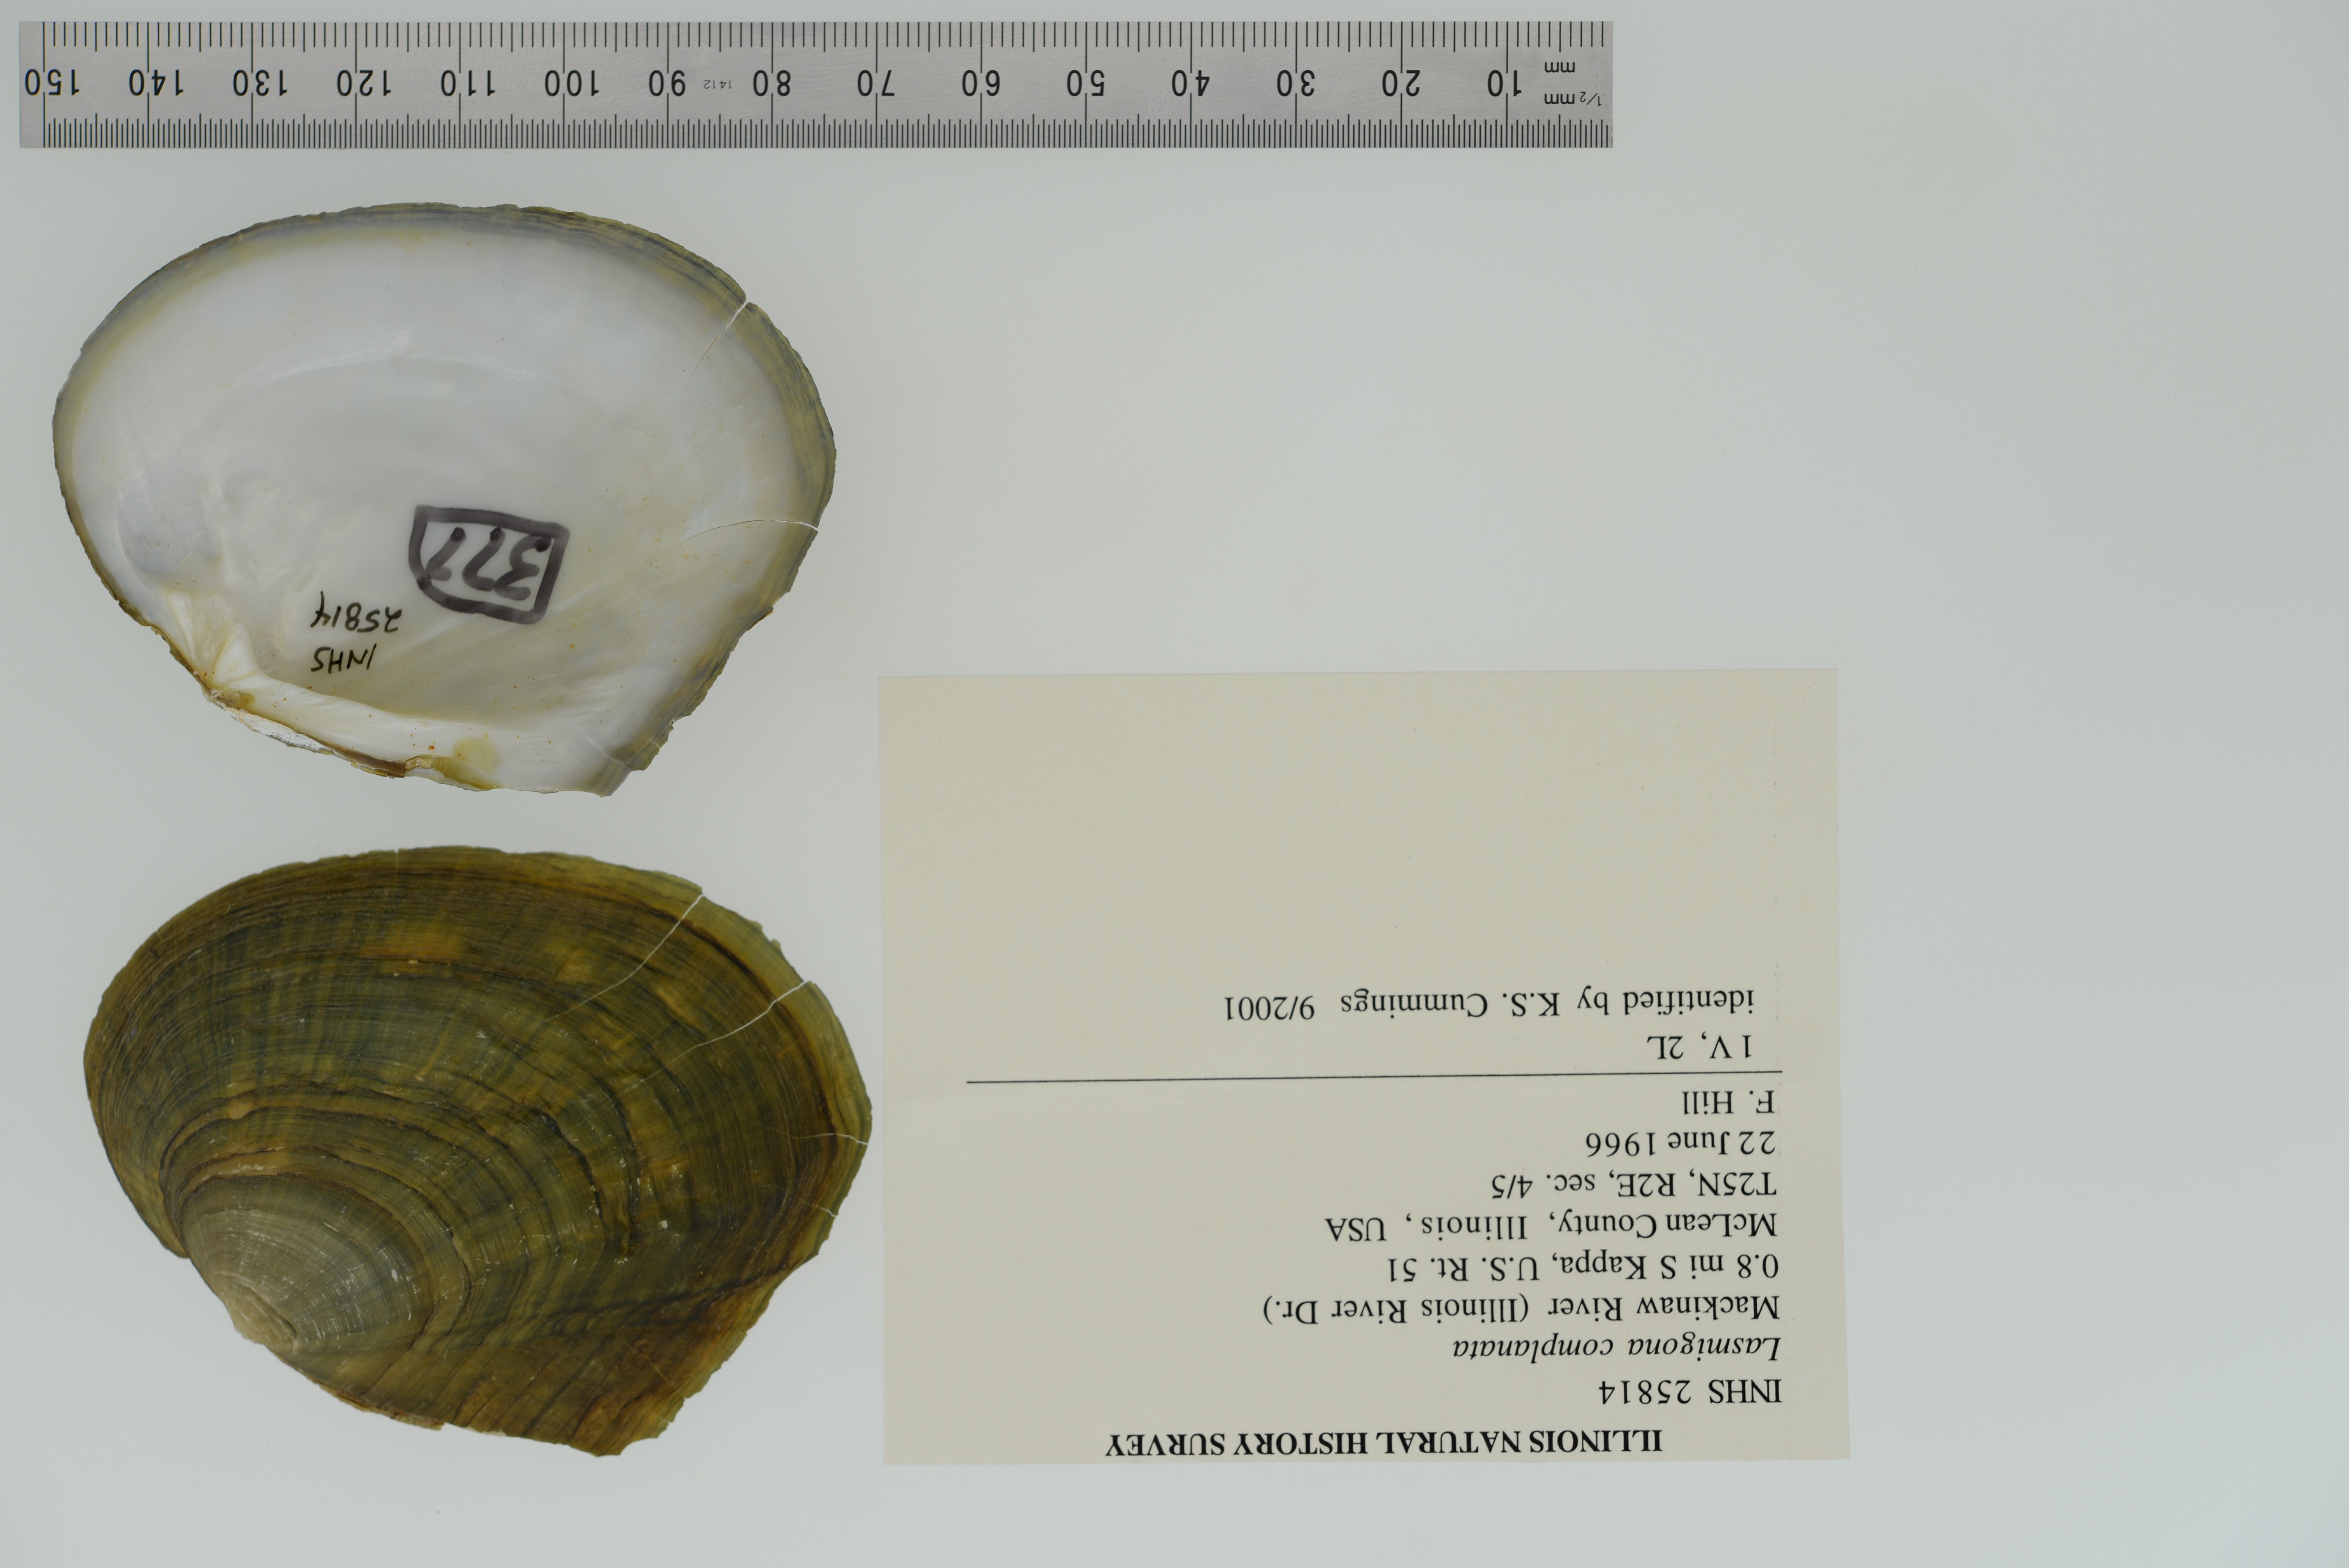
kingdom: Animalia
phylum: Mollusca
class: Bivalvia
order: Unionida
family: Unionidae
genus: Lasmigona
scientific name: Lasmigona complanata
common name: White heelsplitter
